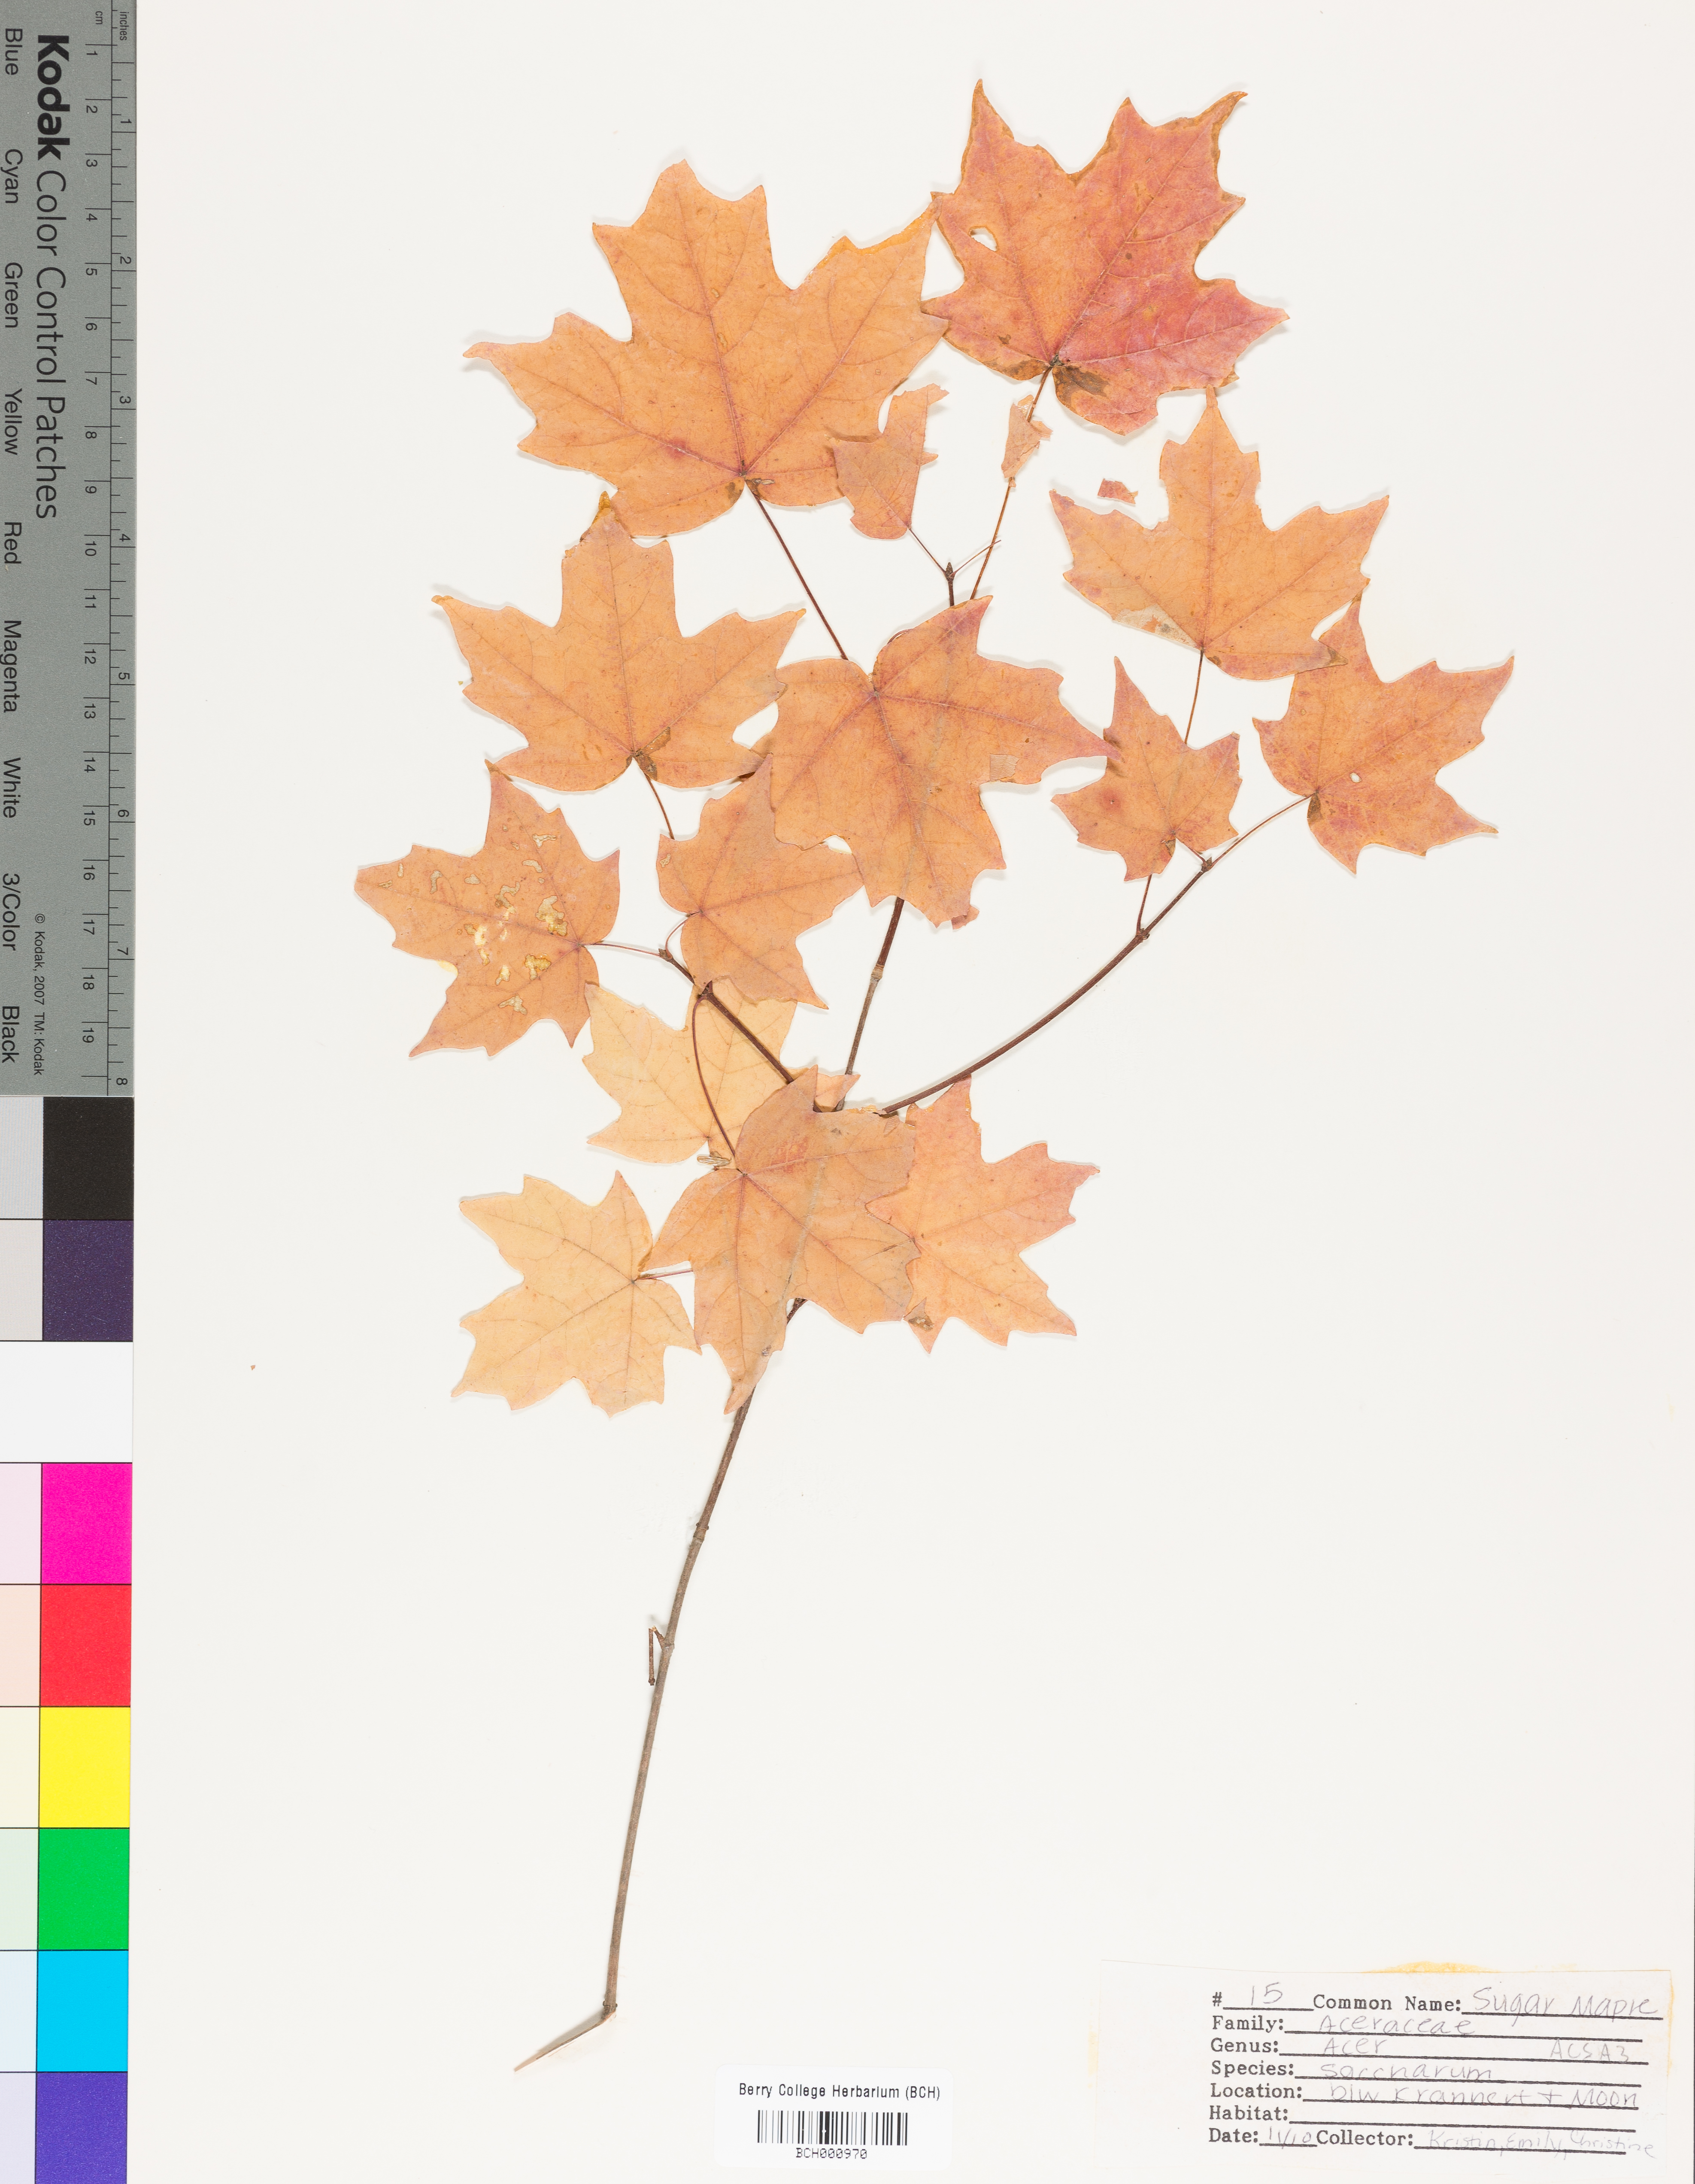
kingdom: Plantae
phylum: Tracheophyta
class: Magnoliopsida
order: Sapindales
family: Sapindaceae
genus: Acer
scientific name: Acer saccharum
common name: Sugar maple
